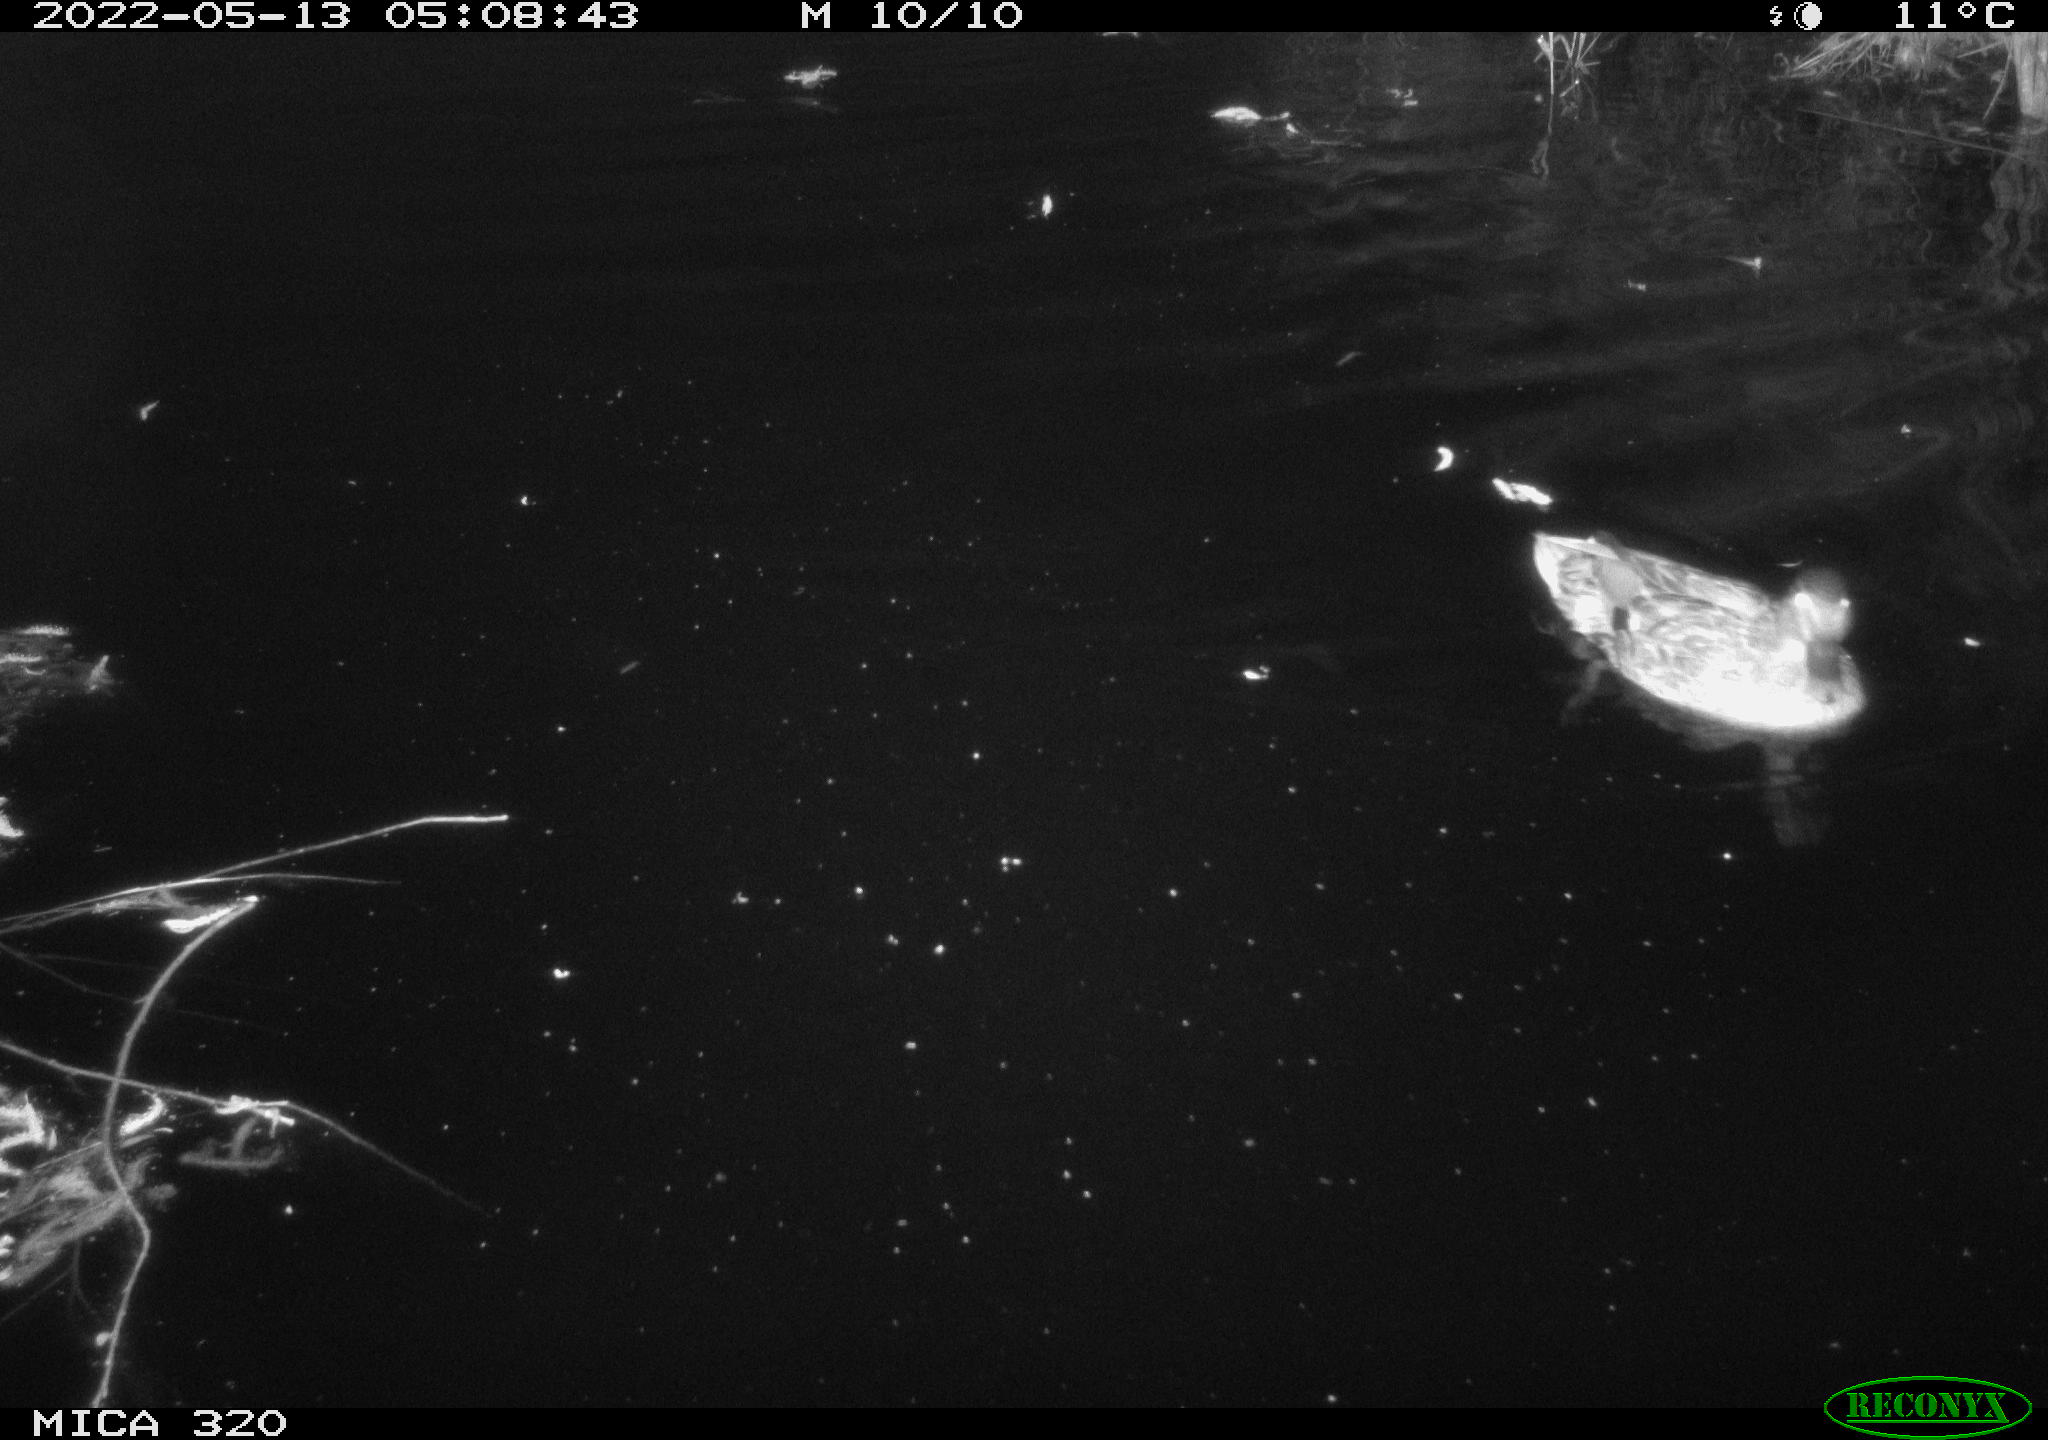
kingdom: Animalia
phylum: Chordata
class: Aves
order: Anseriformes
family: Anatidae
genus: Mareca
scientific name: Mareca strepera
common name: Gadwall
